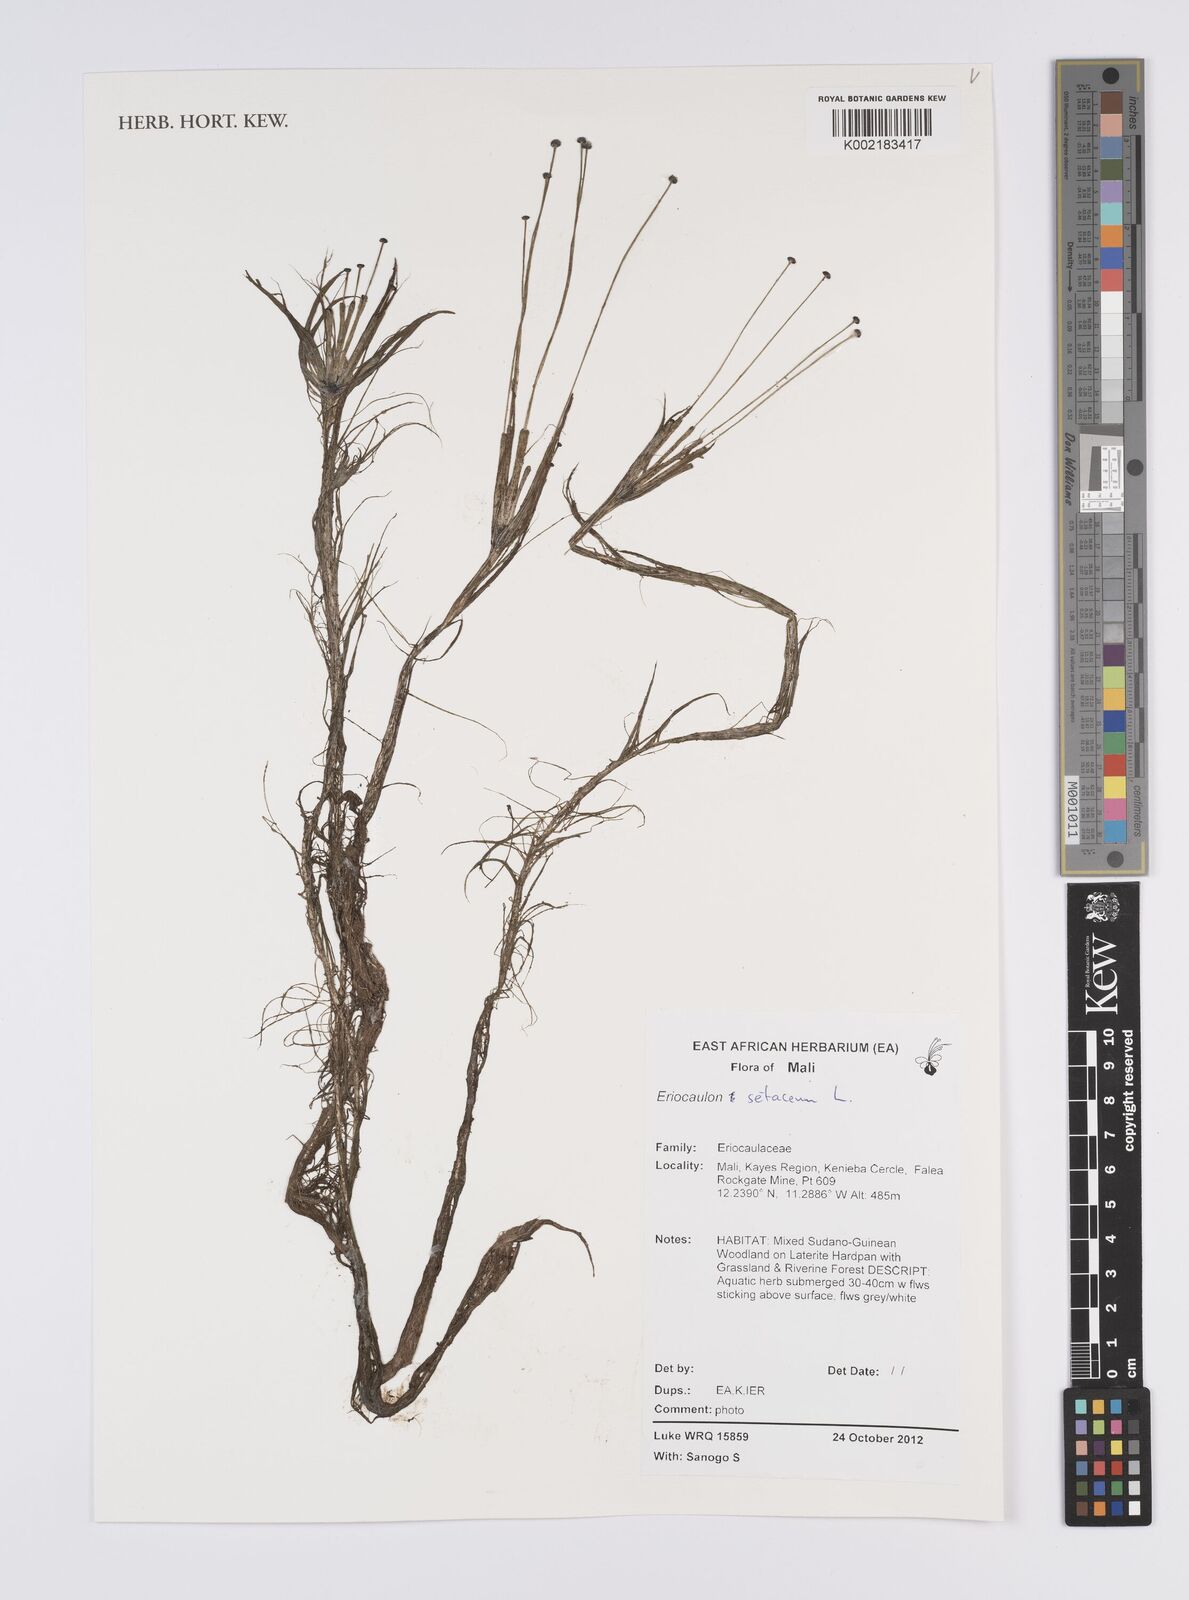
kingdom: Plantae
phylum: Tracheophyta
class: Liliopsida
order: Poales
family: Eriocaulaceae
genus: Eriocaulon
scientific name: Eriocaulon setaceum
